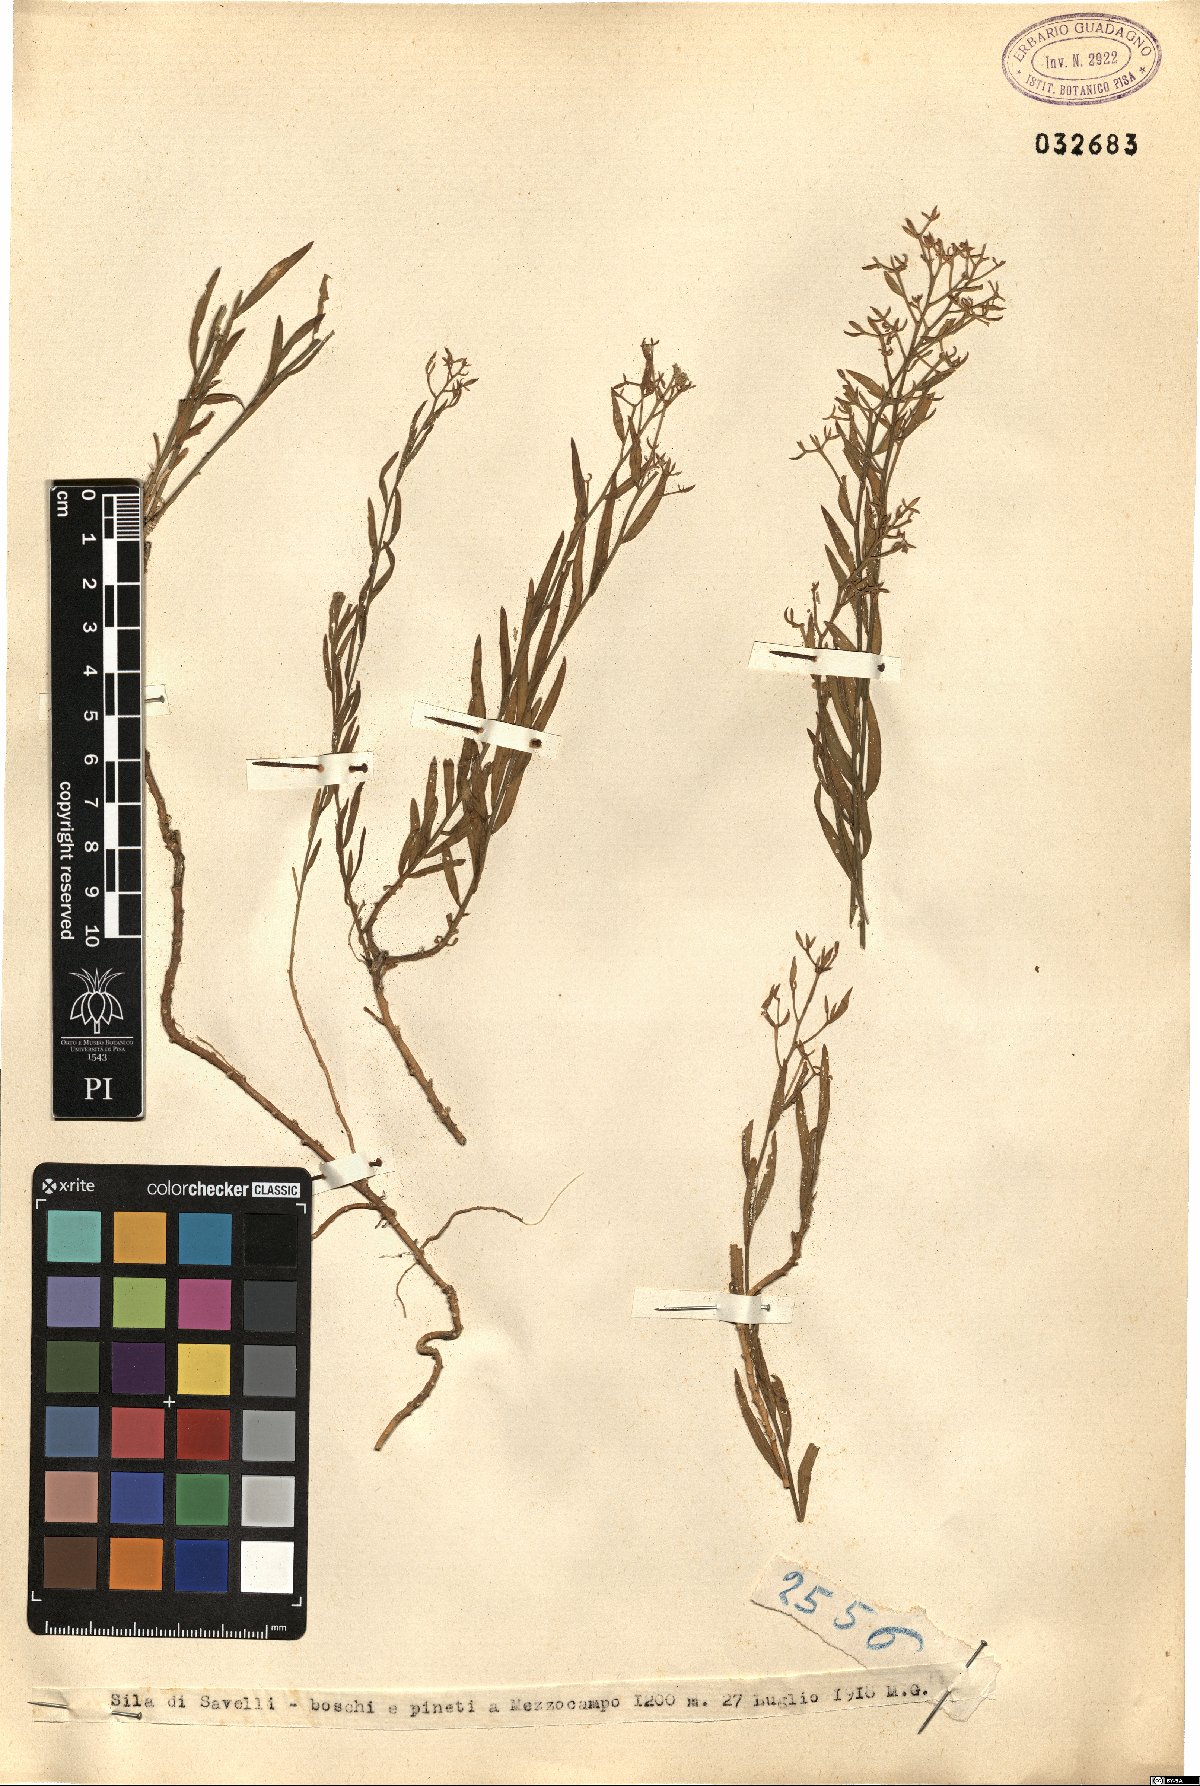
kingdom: Plantae
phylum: Tracheophyta
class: Magnoliopsida
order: Santalales
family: Thesiaceae
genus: Thesium
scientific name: Thesium
